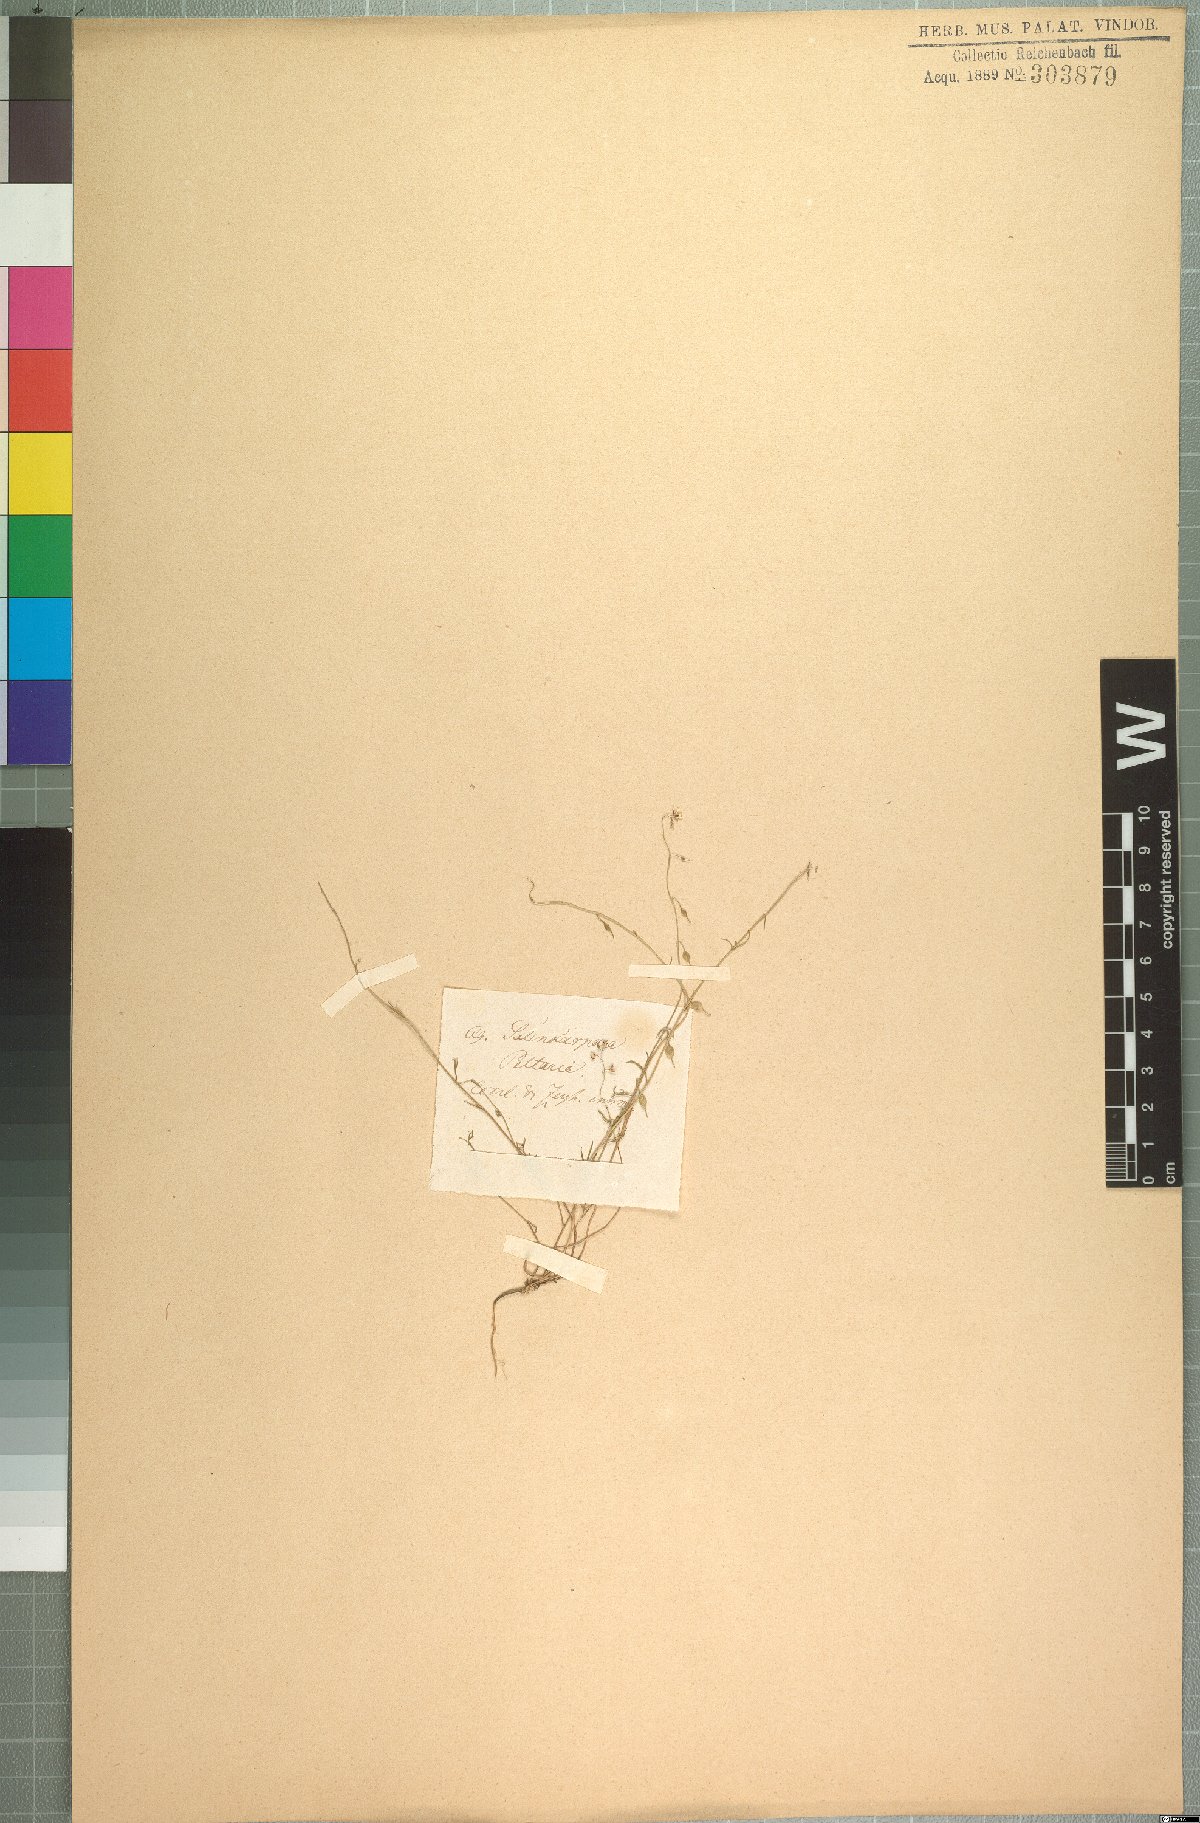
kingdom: Plantae
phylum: Tracheophyta
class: Magnoliopsida
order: Brassicales
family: Brassicaceae
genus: Heliophila
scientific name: Heliophila diffusa
